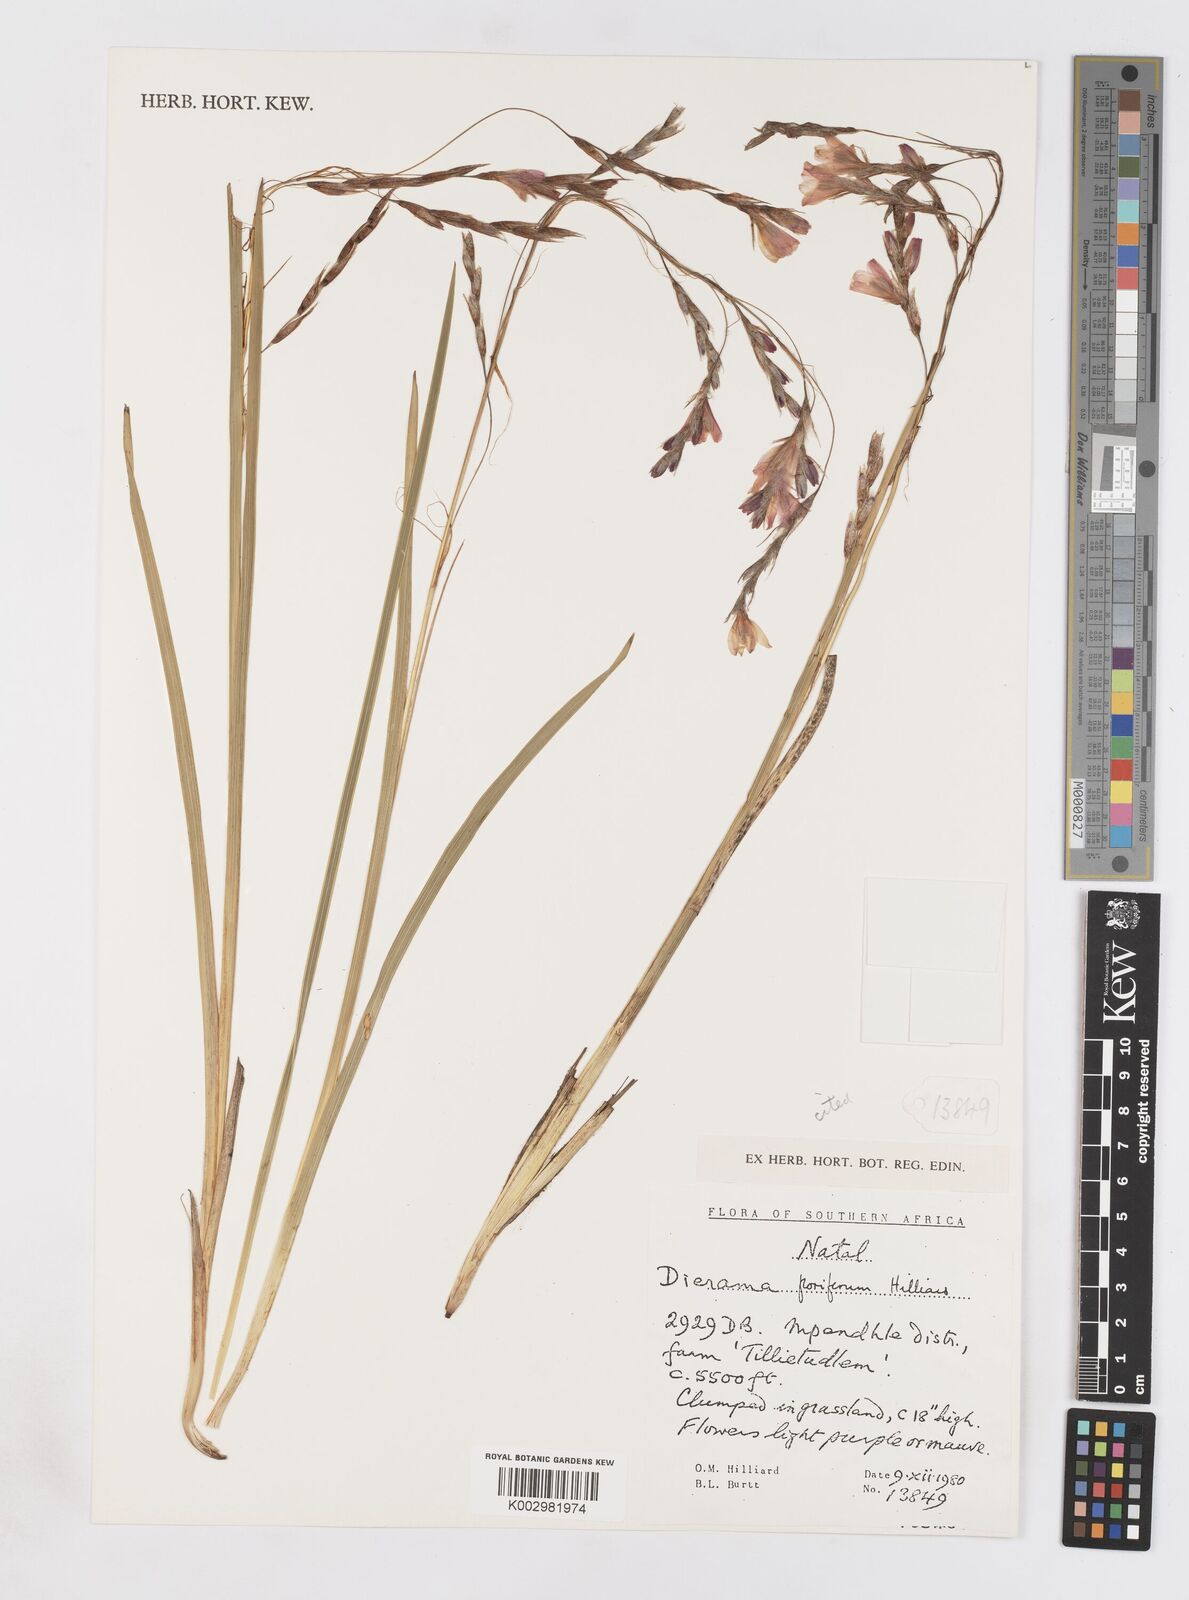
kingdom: Plantae
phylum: Tracheophyta
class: Liliopsida
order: Asparagales
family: Iridaceae
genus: Dierama
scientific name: Dierama floriferum
